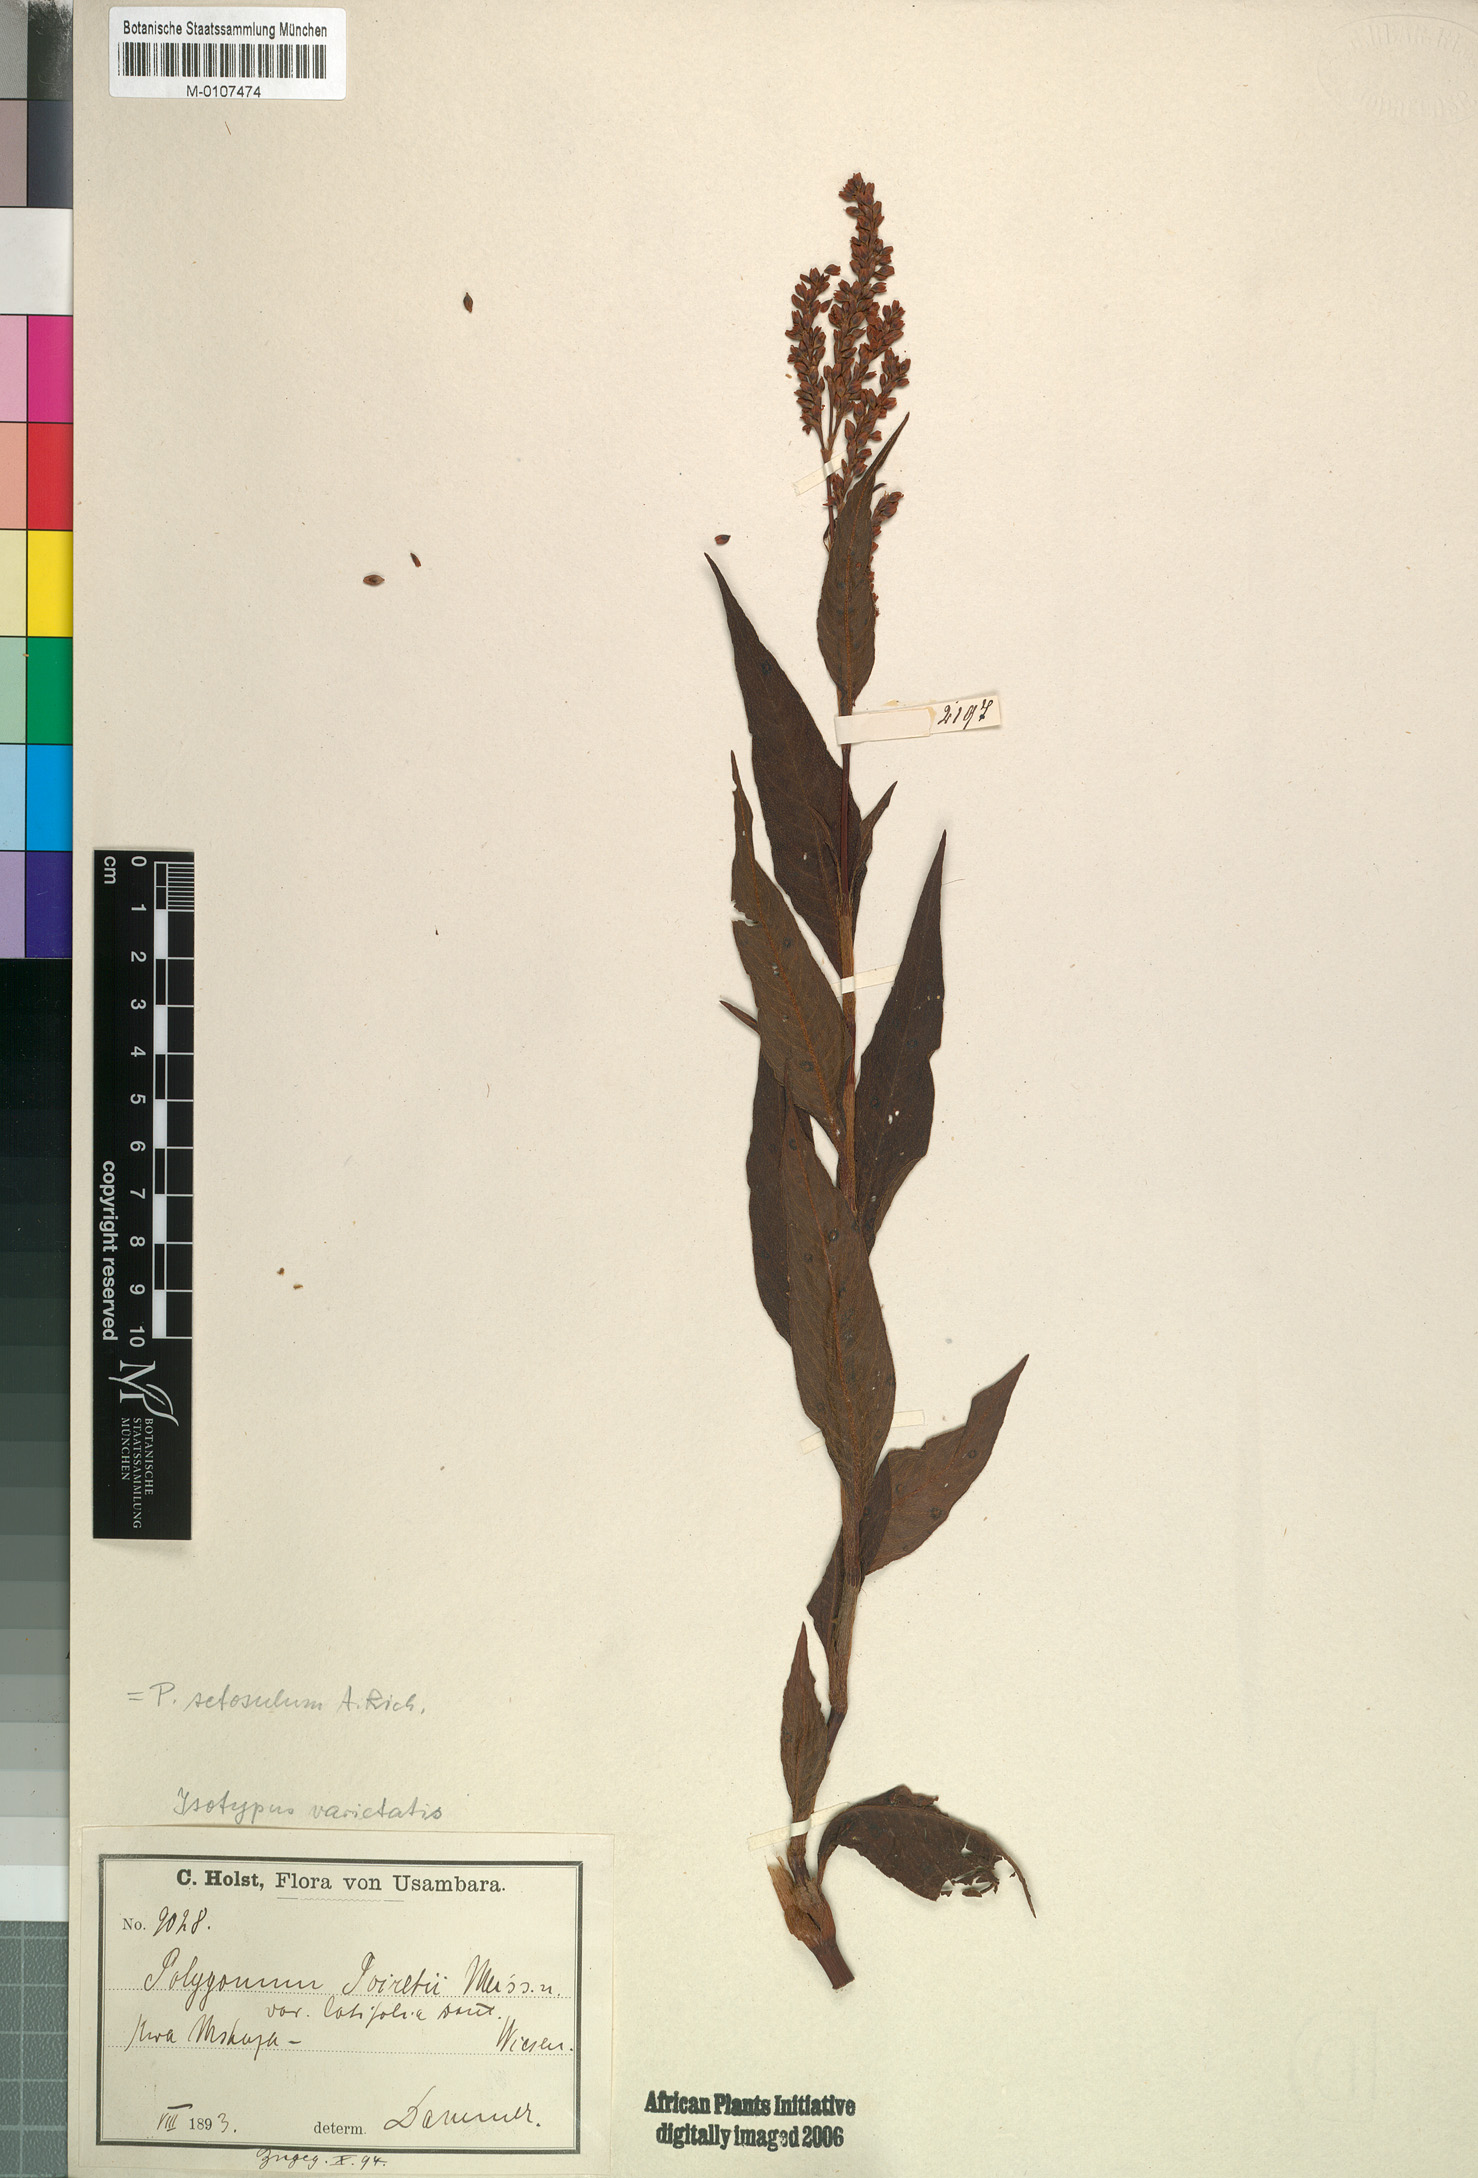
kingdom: Plantae
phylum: Tracheophyta
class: Magnoliopsida
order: Caryophyllales
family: Polygonaceae
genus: Persicaria
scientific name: Persicaria setosula
